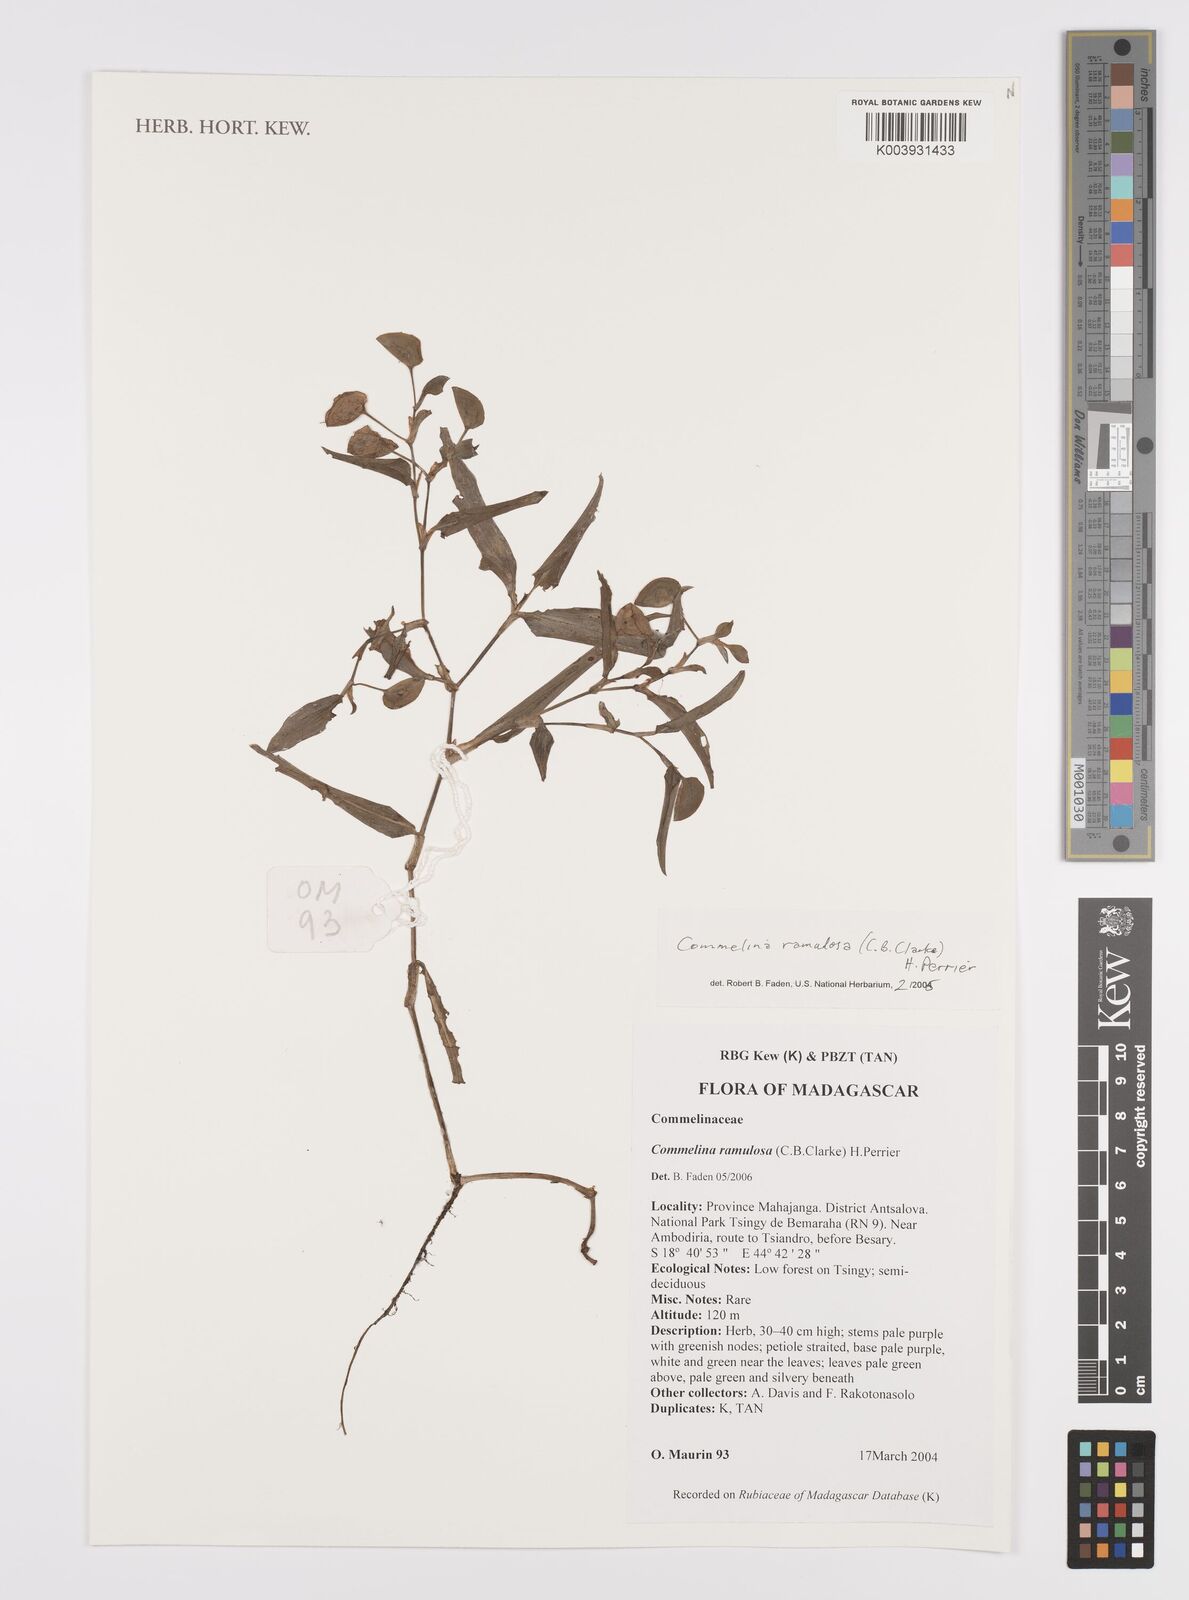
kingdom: Plantae
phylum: Tracheophyta
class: Liliopsida
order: Commelinales
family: Commelinaceae
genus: Commelina
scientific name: Commelina ramulosa
